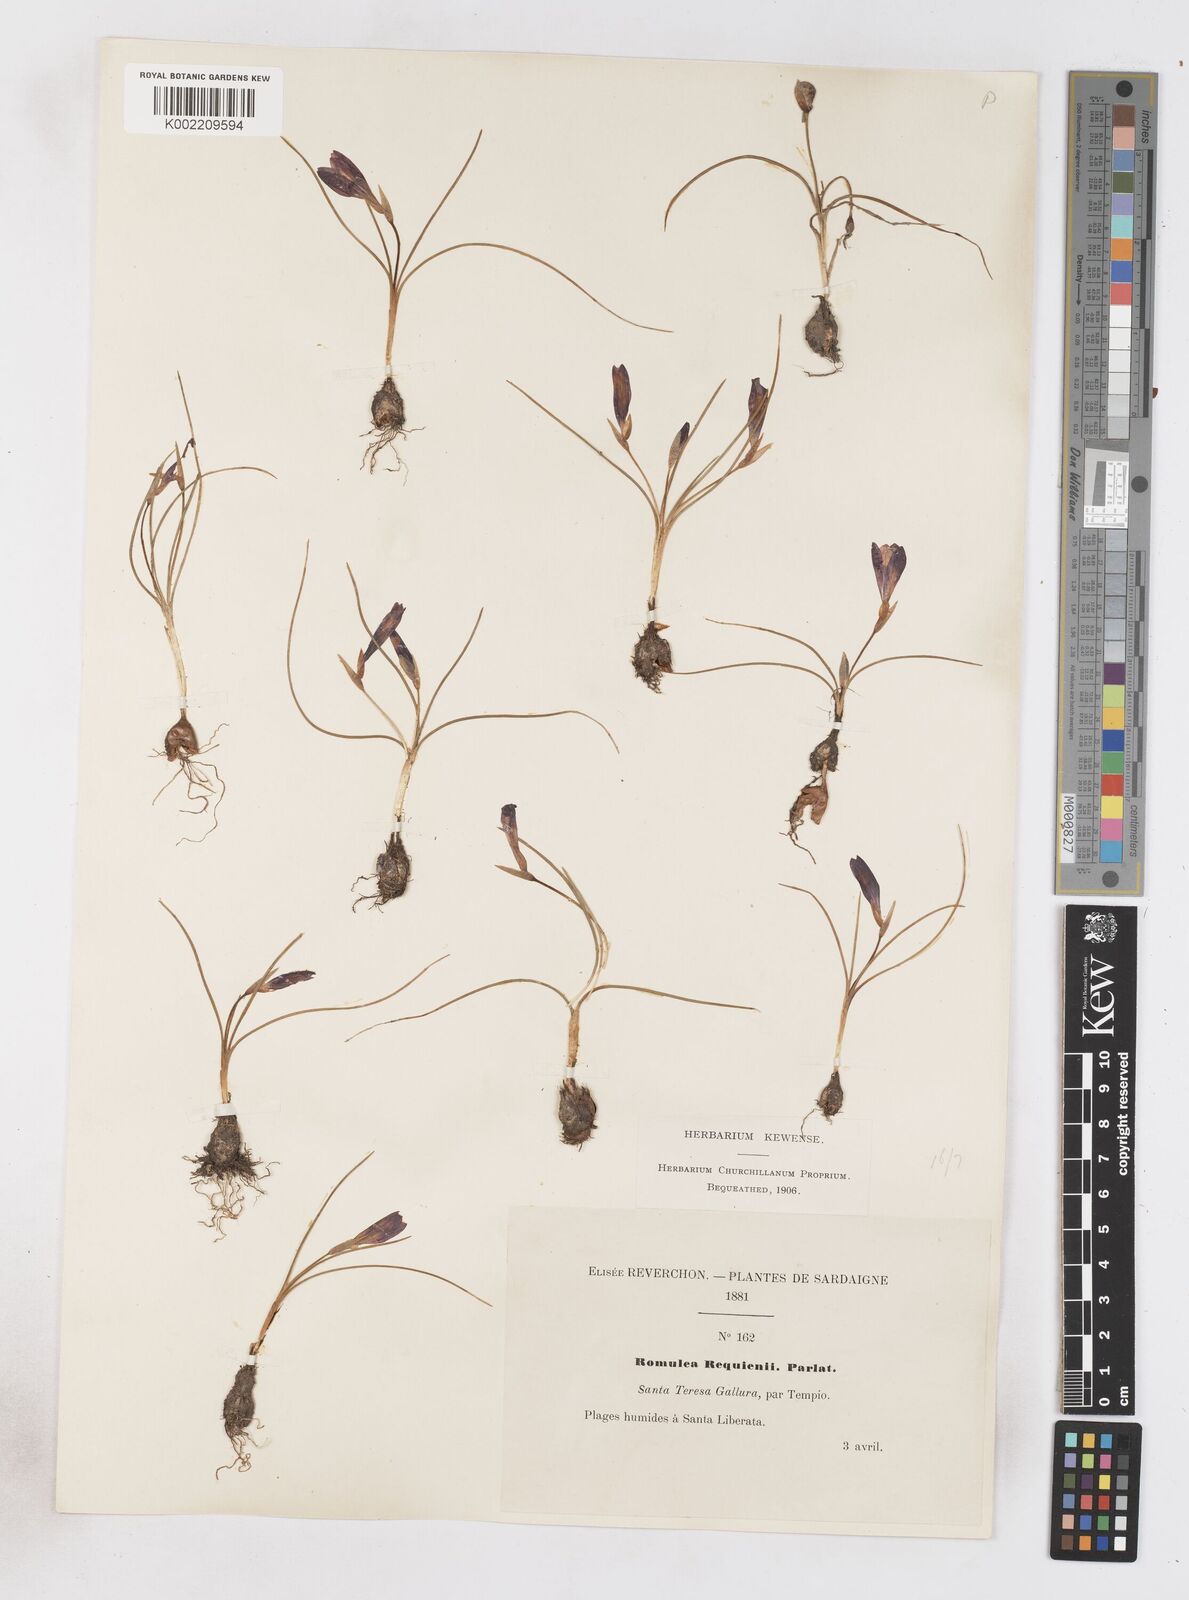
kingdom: Plantae
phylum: Tracheophyta
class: Liliopsida
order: Asparagales
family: Iridaceae
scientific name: Iridaceae
